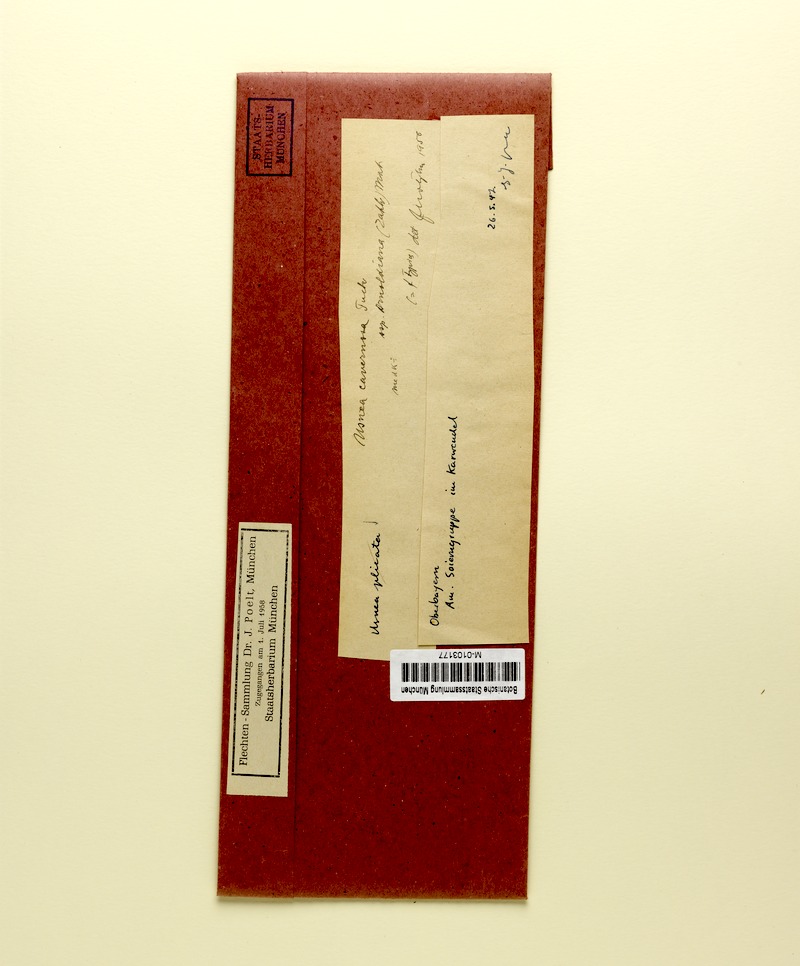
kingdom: Fungi
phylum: Ascomycota
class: Lecanoromycetes
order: Lecanorales
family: Parmeliaceae
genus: Usnea
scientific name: Usnea cavernosa
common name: Pitted beard lichen
